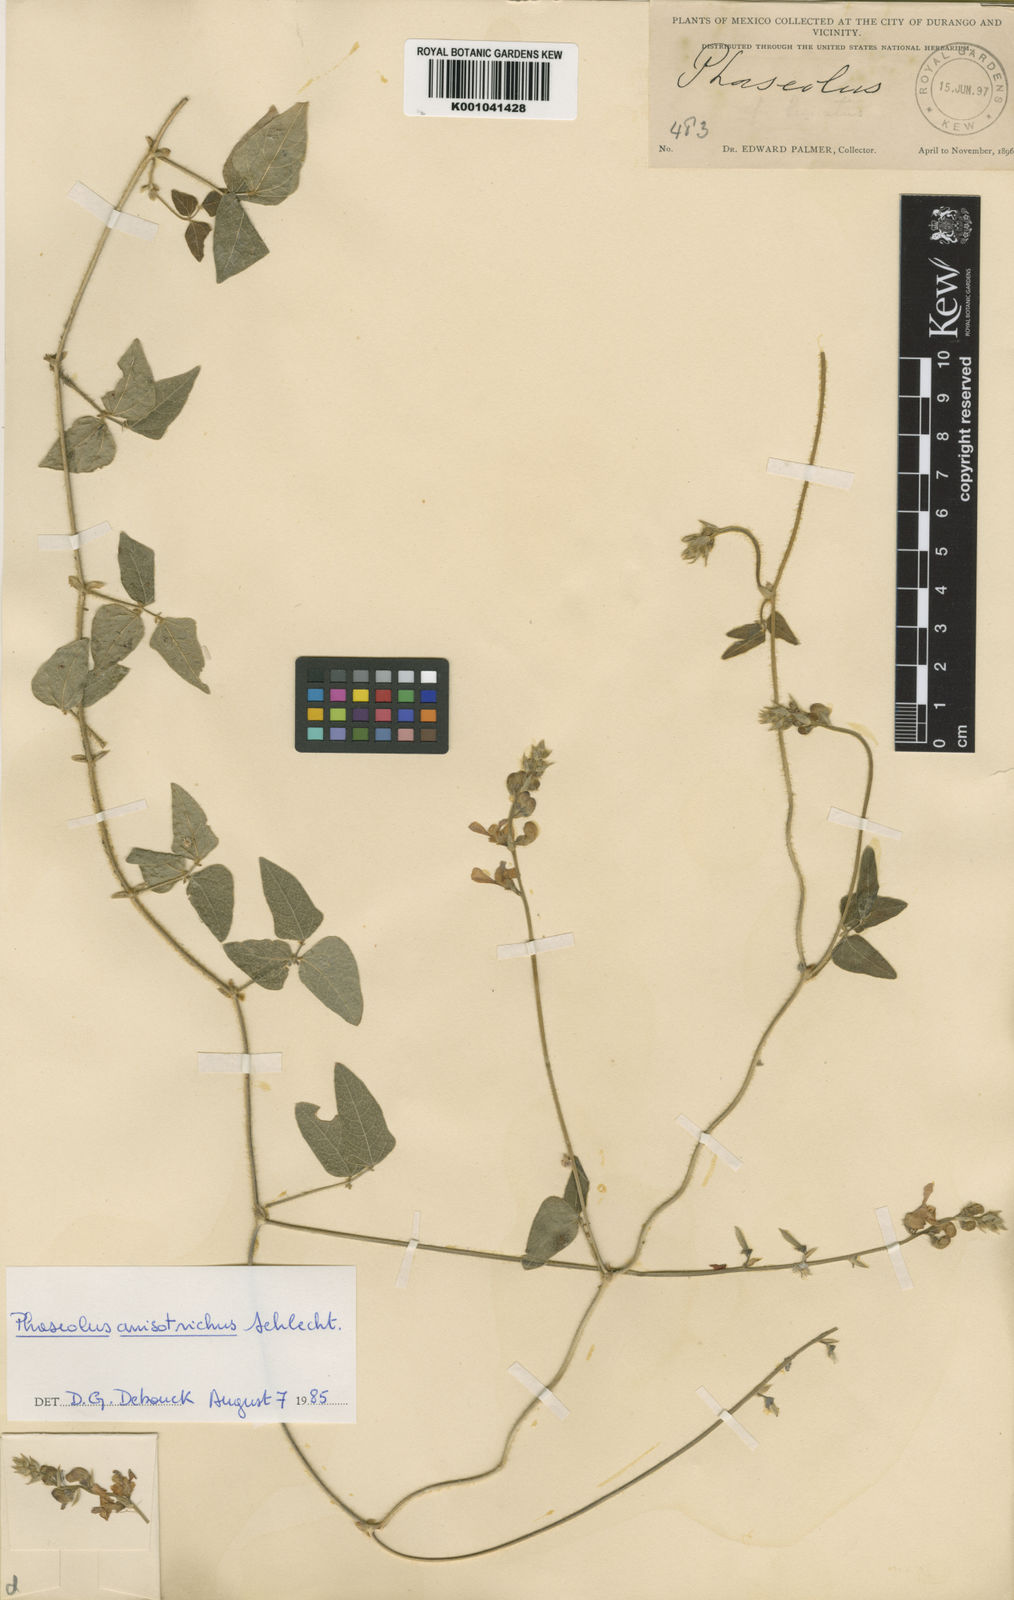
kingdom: Plantae
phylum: Tracheophyta
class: Magnoliopsida
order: Fabales
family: Fabaceae
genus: Phaseolus
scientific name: Phaseolus
